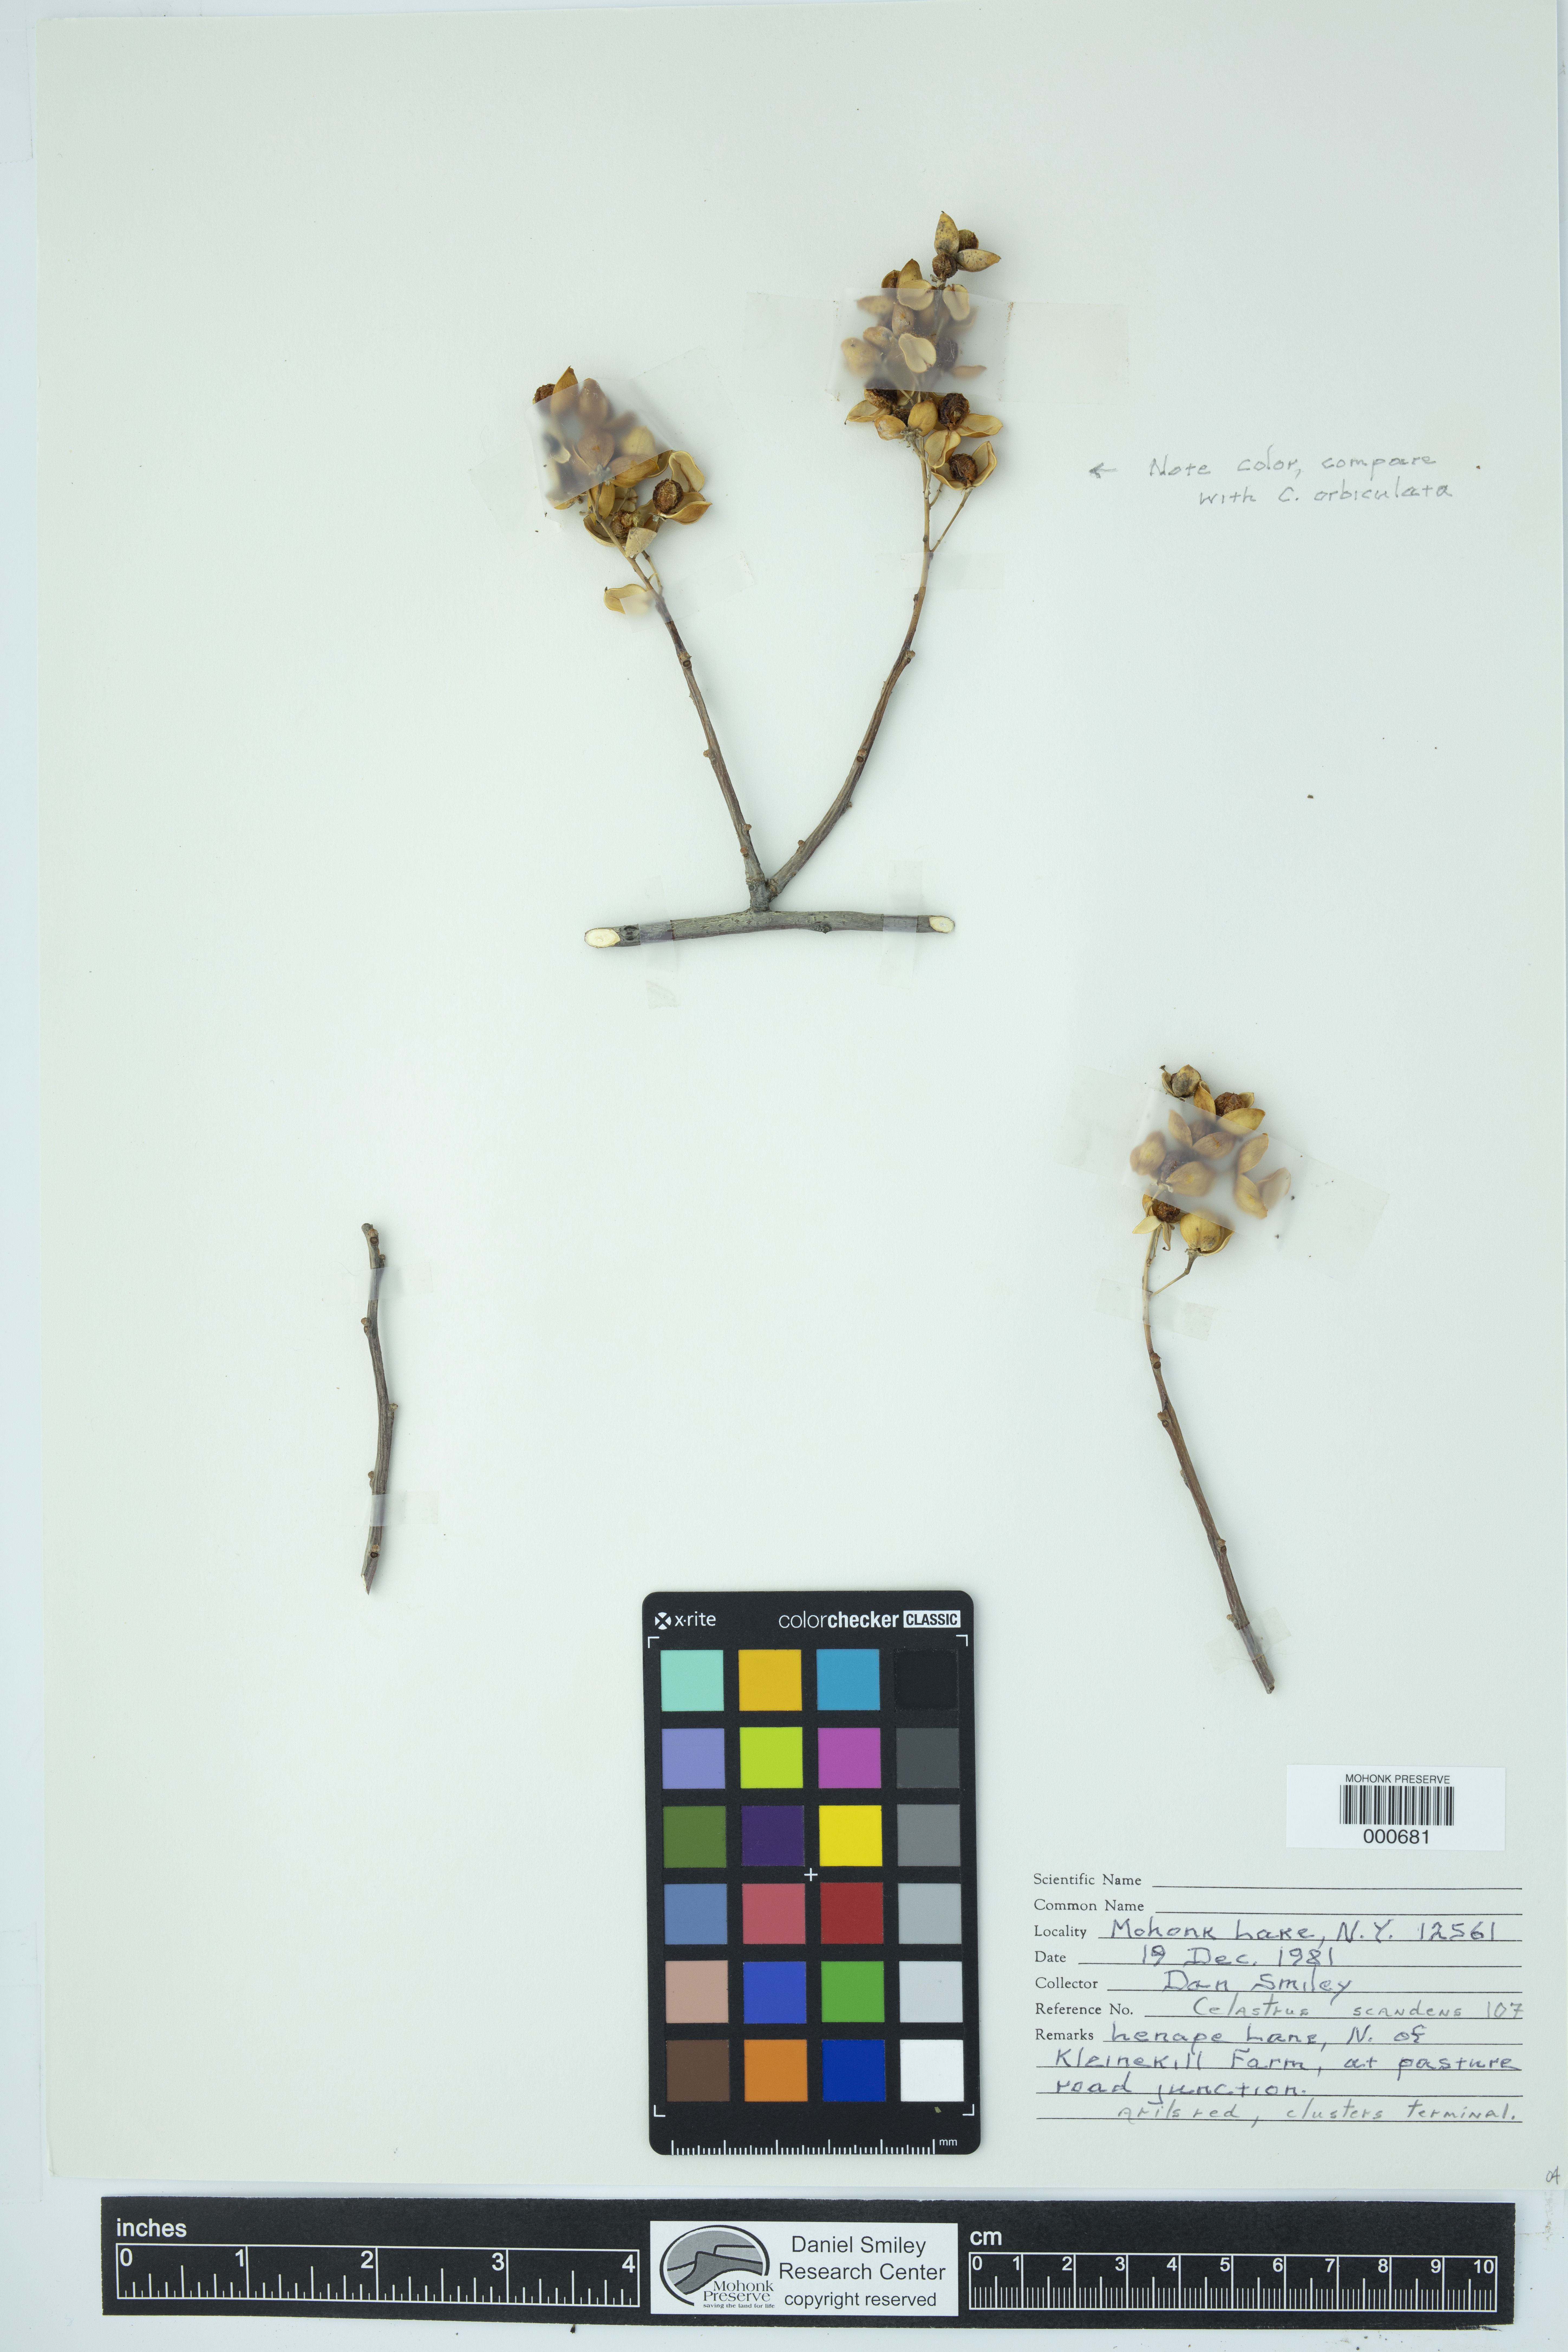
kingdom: Plantae
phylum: Tracheophyta
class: Magnoliopsida
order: Celastrales
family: Celastraceae
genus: Celastrus
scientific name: Celastrus scandens
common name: American bittersweet
